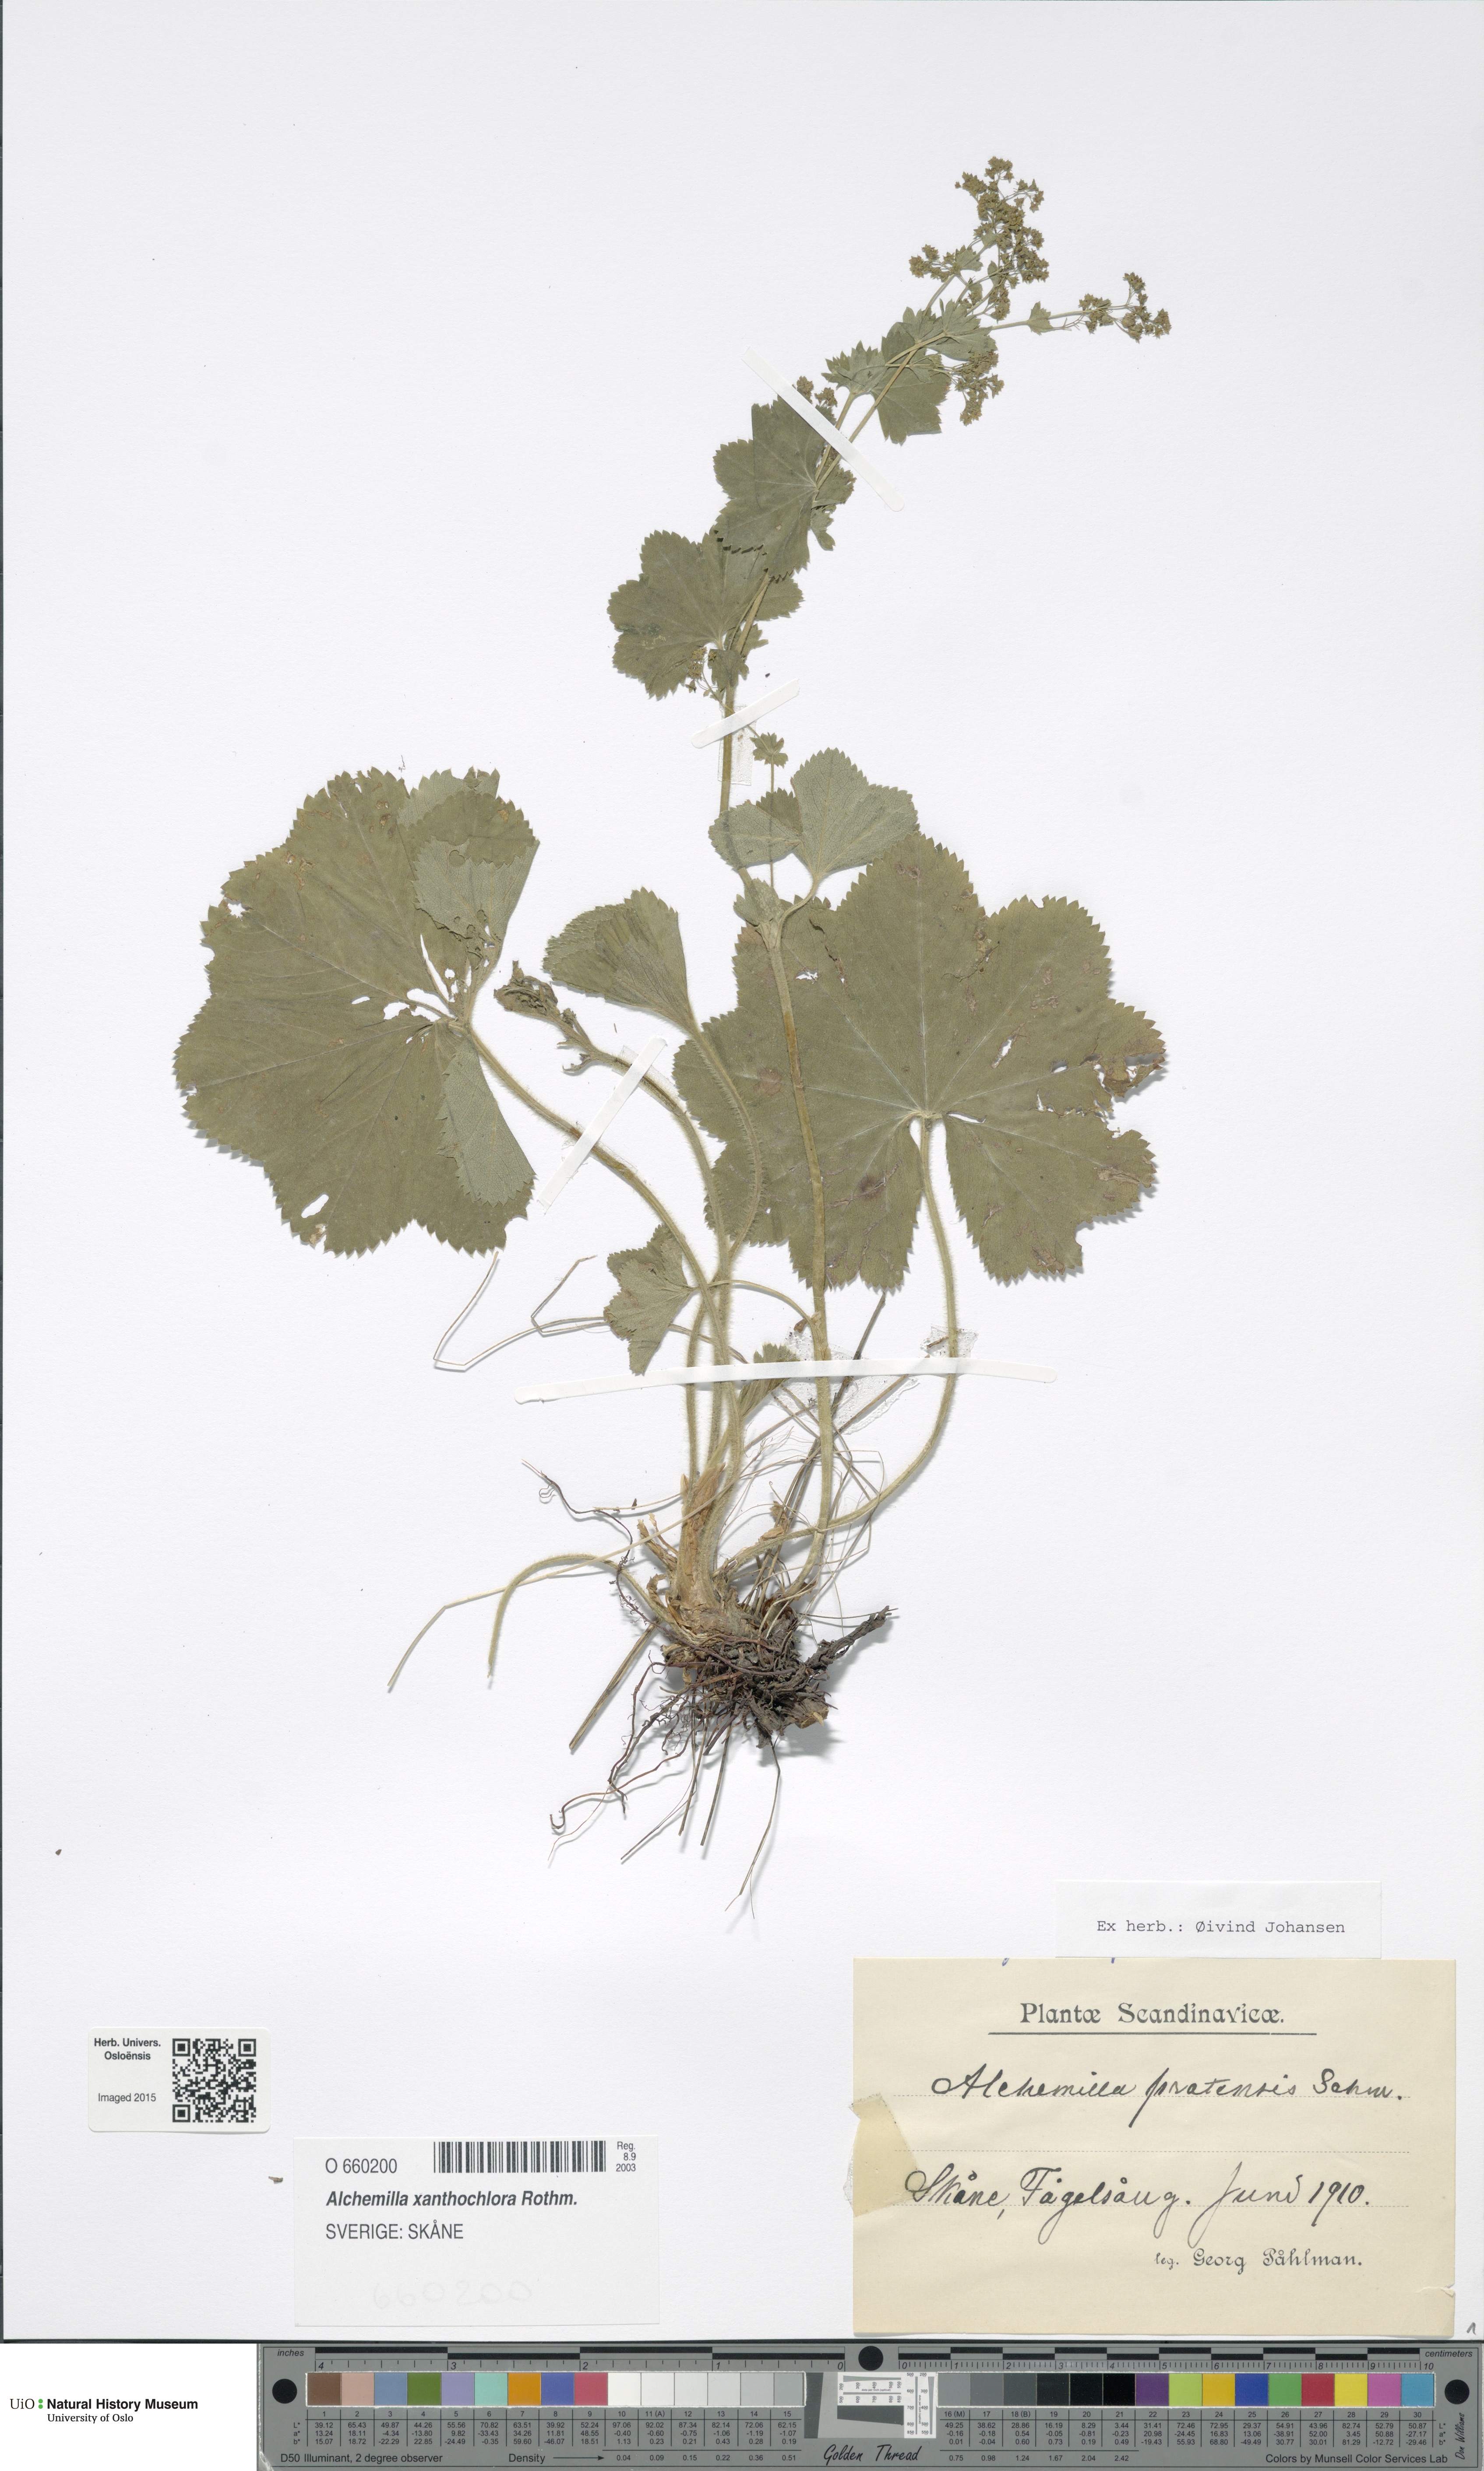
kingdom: Plantae
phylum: Tracheophyta
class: Magnoliopsida
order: Rosales
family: Rosaceae
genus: Alchemilla
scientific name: Alchemilla xanthochlora
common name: Intermediate lady's-mantle
